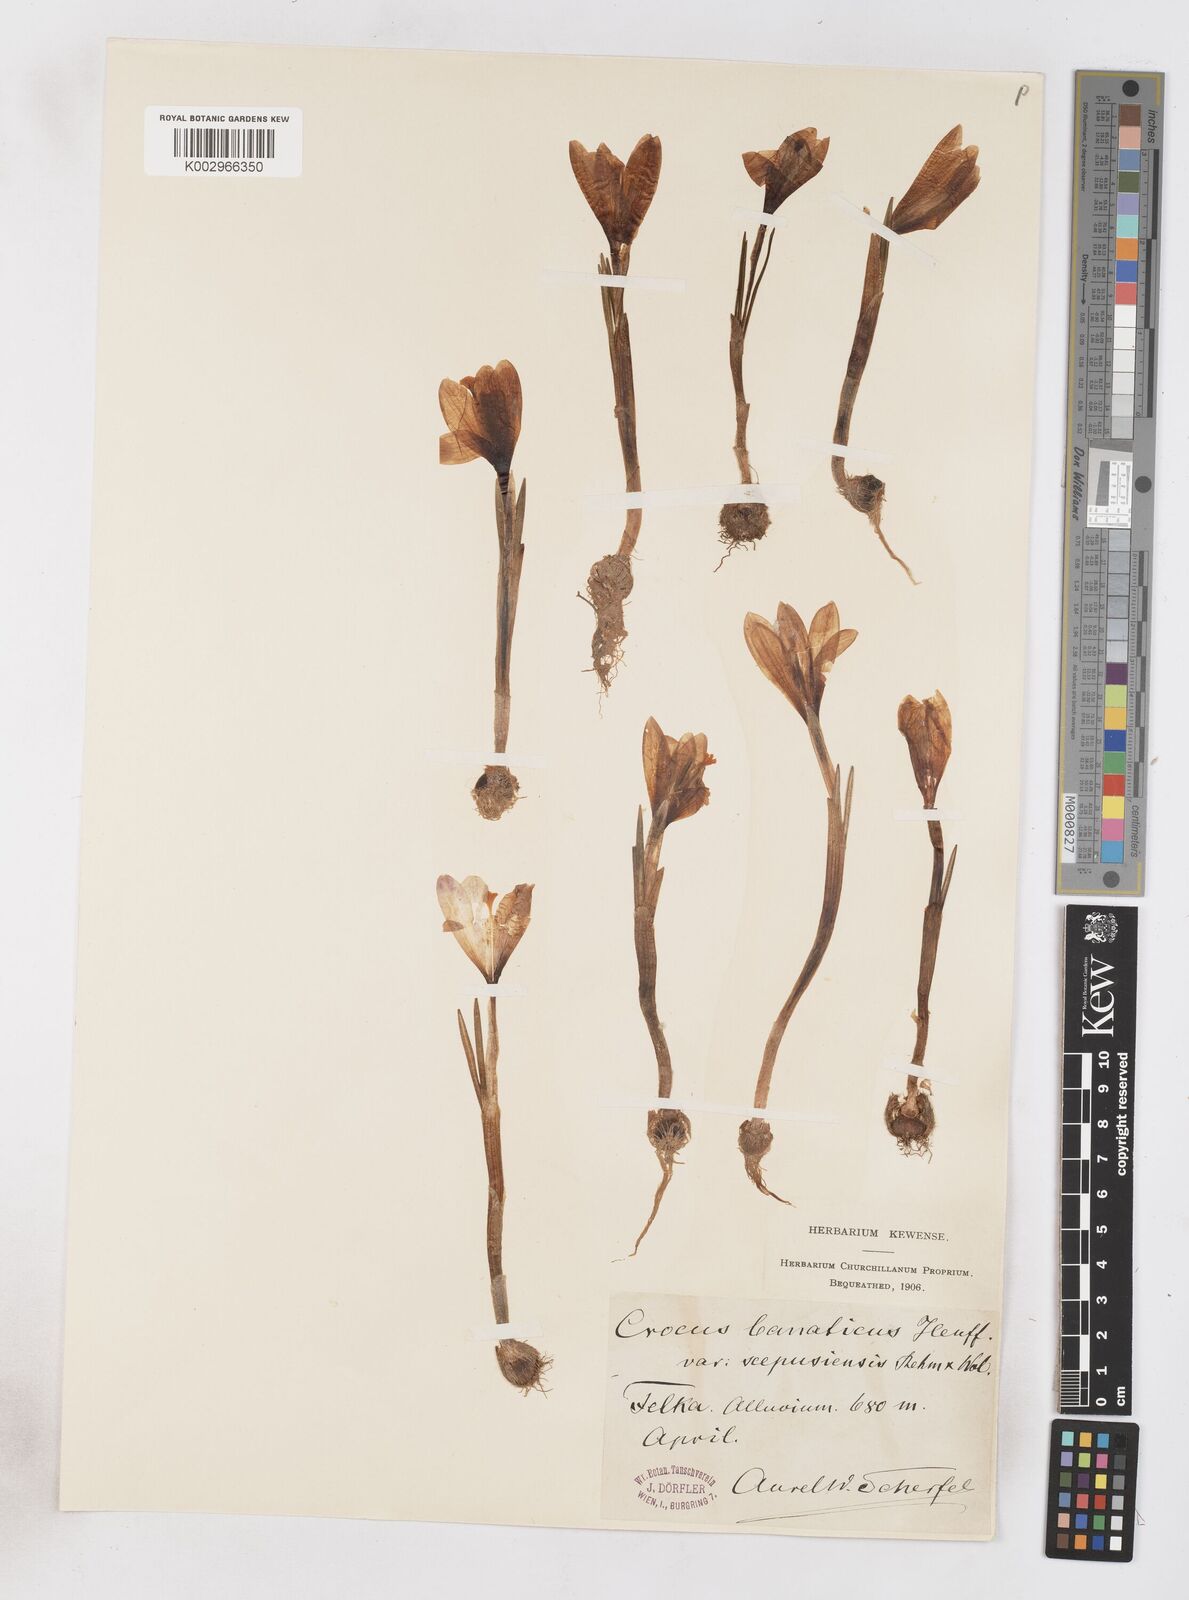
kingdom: Plantae
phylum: Tracheophyta
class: Liliopsida
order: Asparagales
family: Iridaceae
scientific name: Iridaceae
